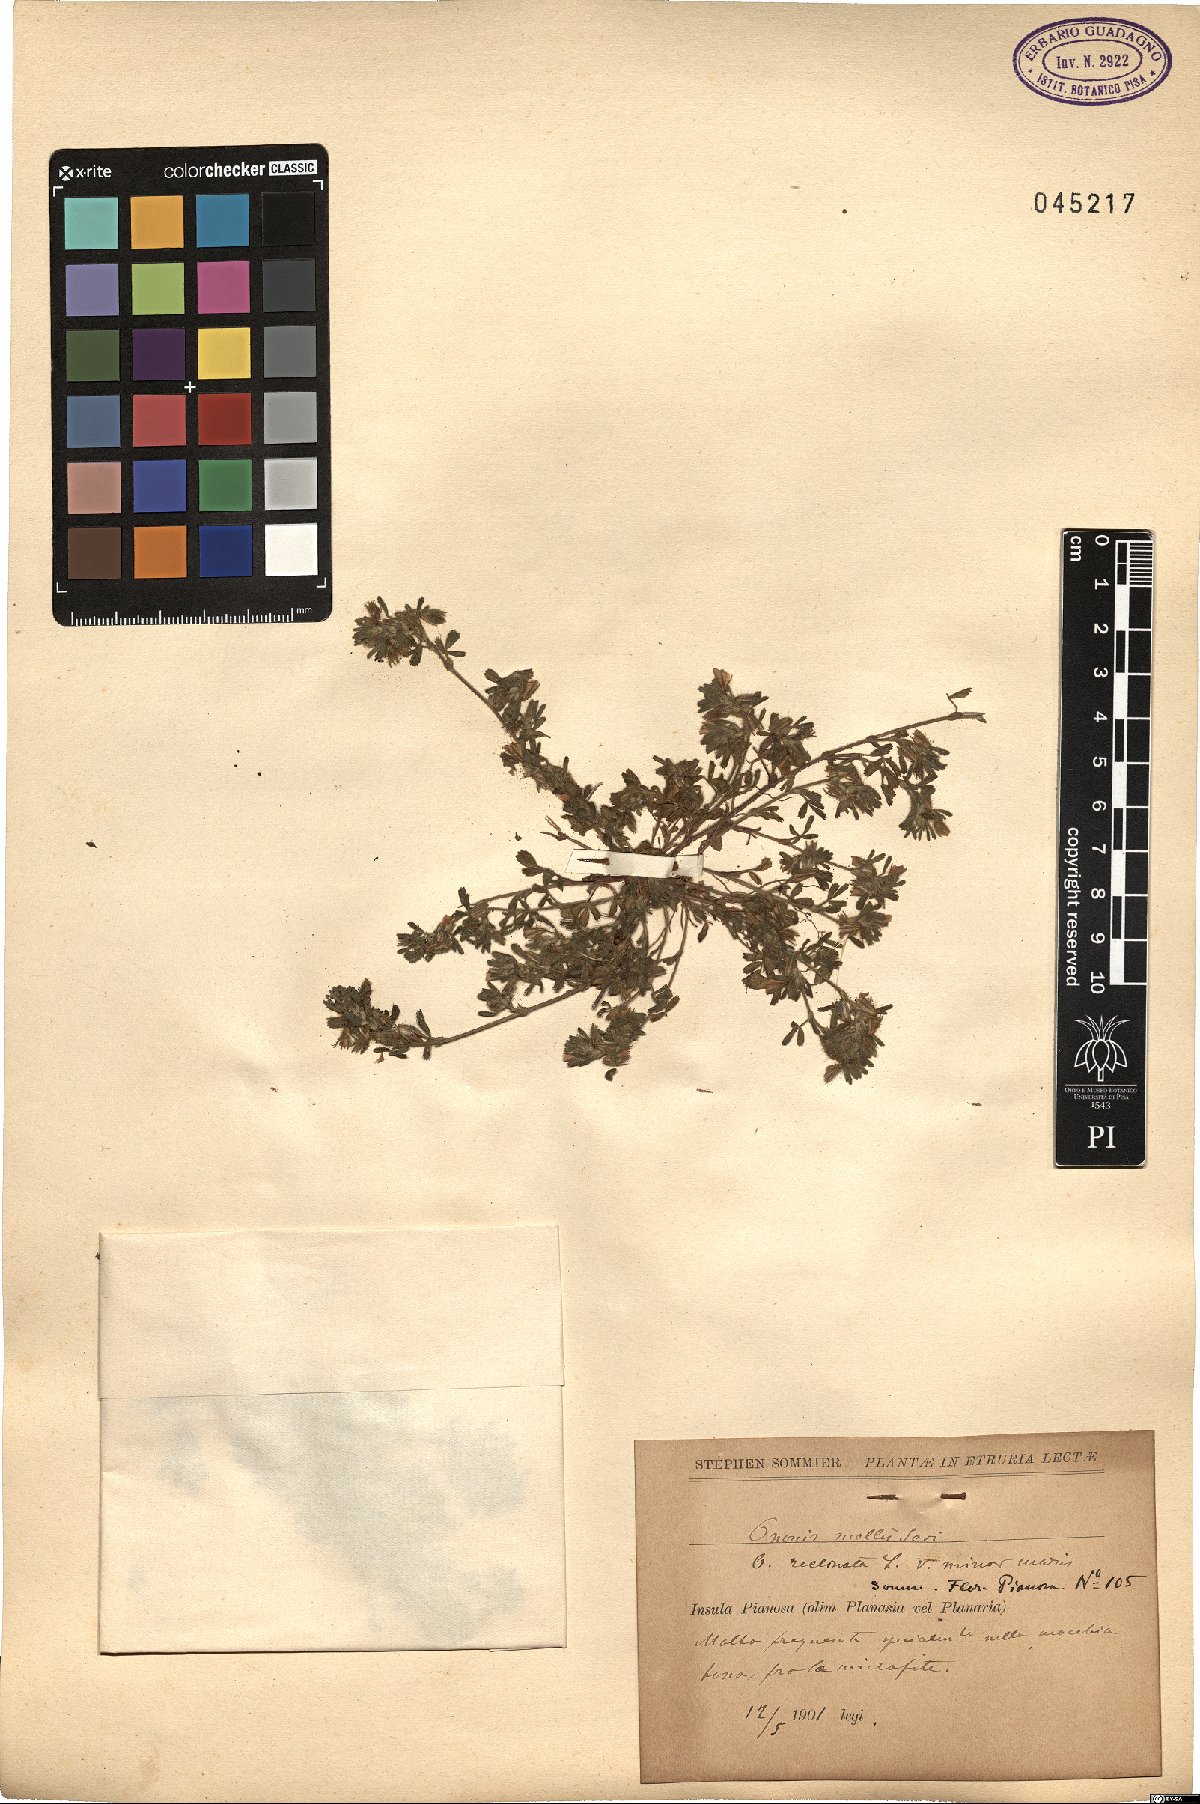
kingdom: Plantae
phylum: Tracheophyta
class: Magnoliopsida
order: Fabales
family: Fabaceae
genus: Ononis
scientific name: Ononis reclinata
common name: Small restharrow
